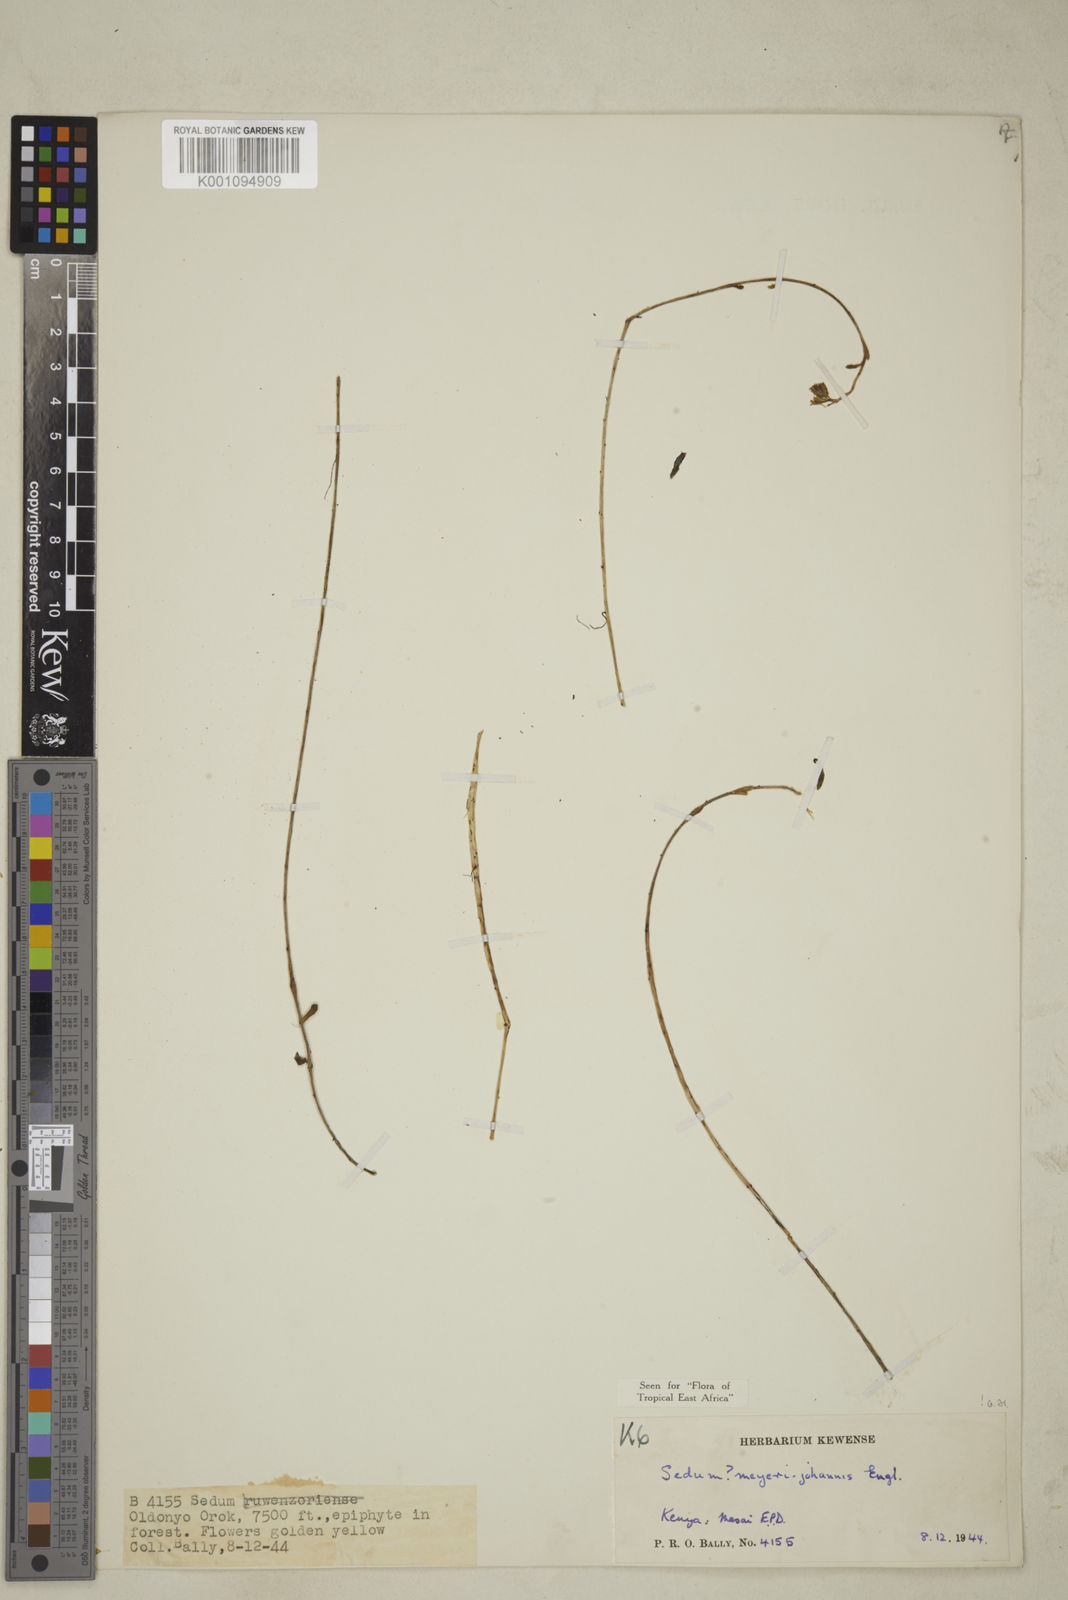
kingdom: Plantae
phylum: Tracheophyta
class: Magnoliopsida
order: Saxifragales
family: Crassulaceae
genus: Sedum
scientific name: Sedum meyeri-johannis
